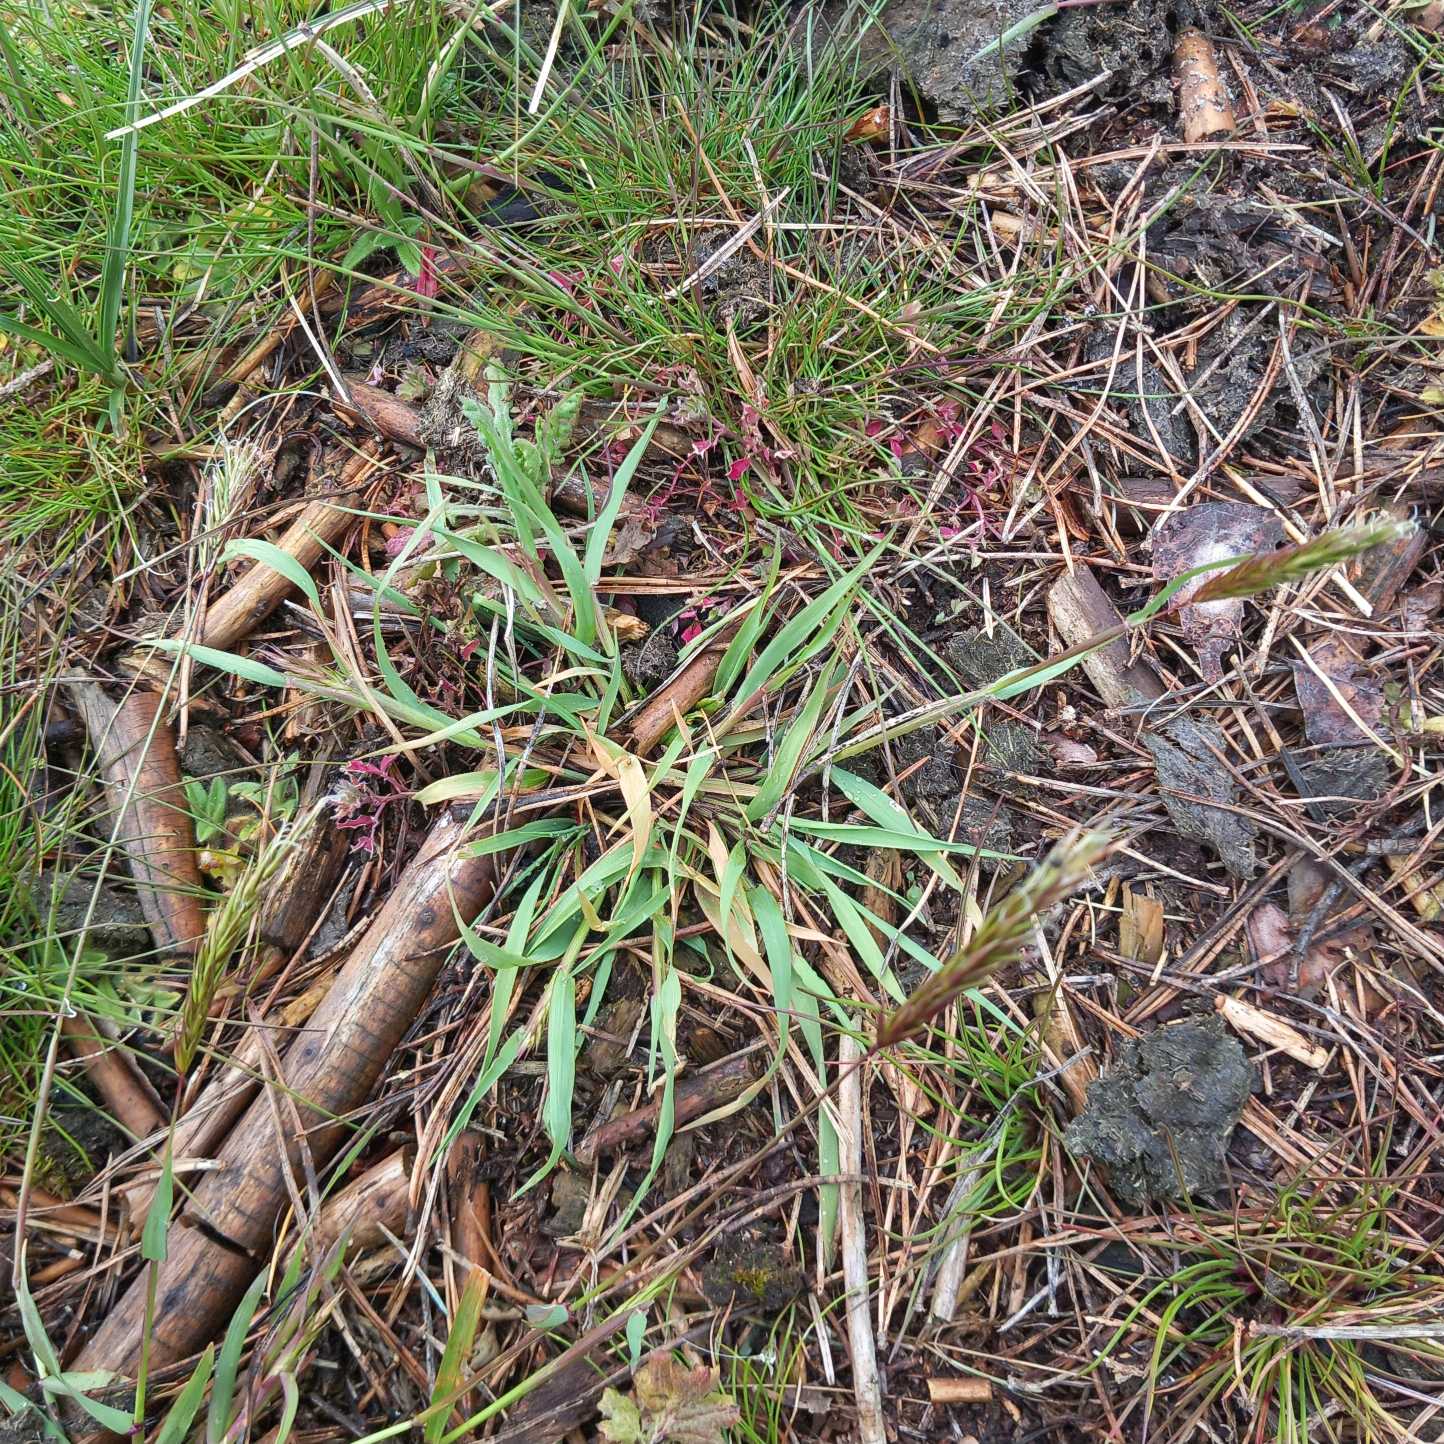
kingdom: Plantae
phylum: Tracheophyta
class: Liliopsida
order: Poales
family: Poaceae
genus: Anthoxanthum
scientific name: Anthoxanthum odoratum
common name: Vellugtende gulaks
